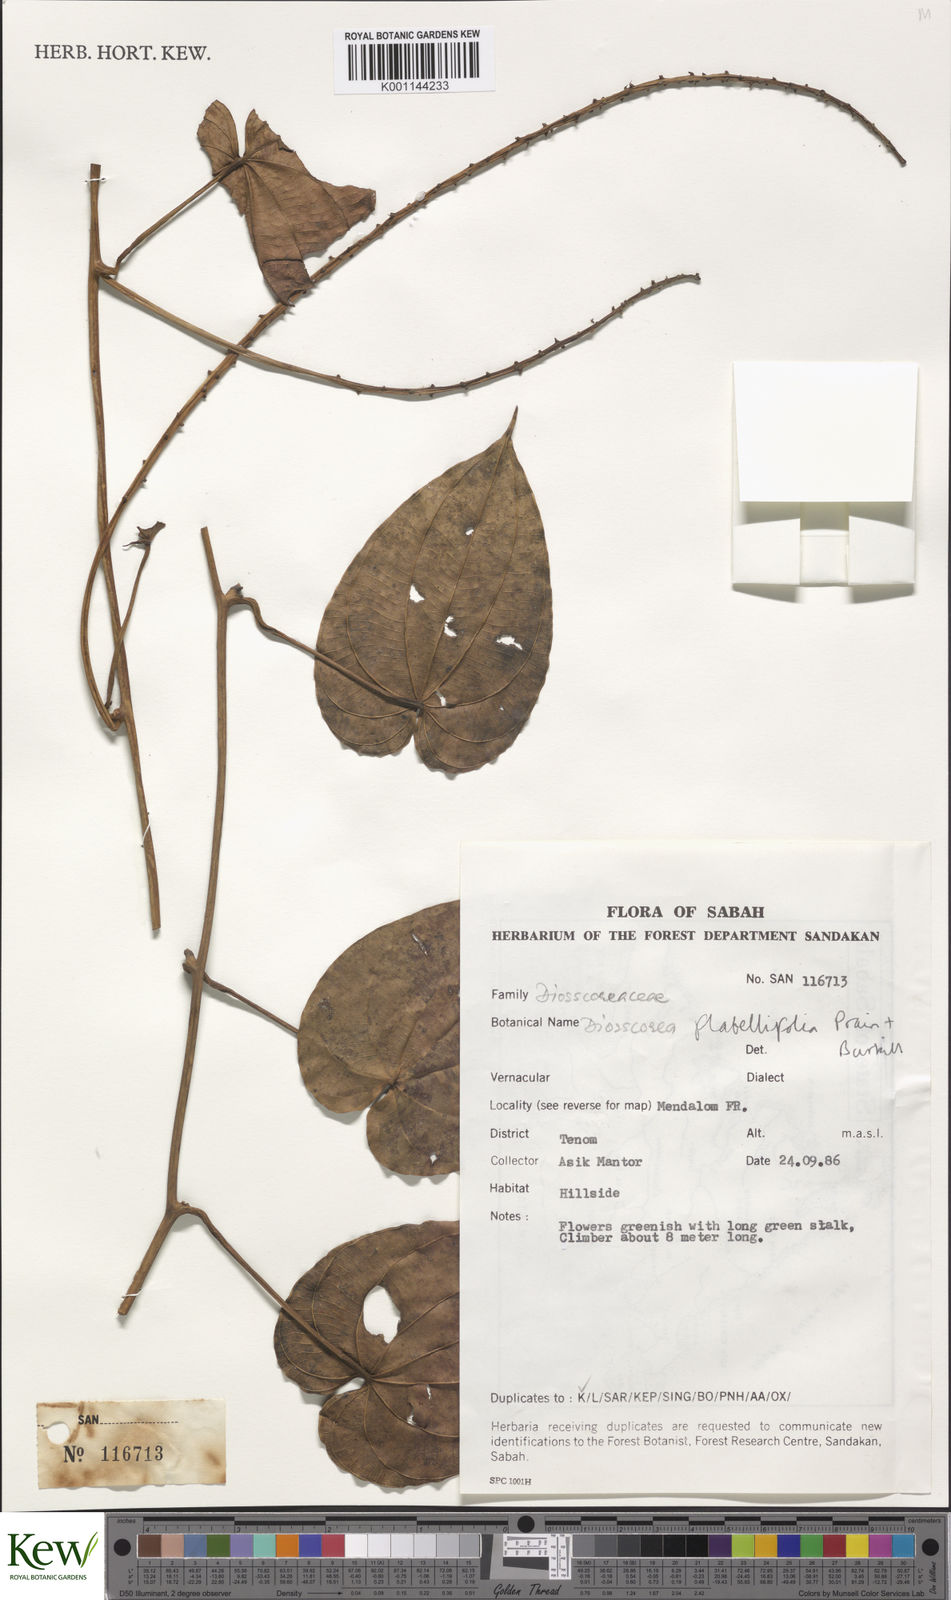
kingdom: Plantae
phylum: Tracheophyta
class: Liliopsida
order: Dioscoreales
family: Dioscoreaceae
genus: Dioscorea
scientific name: Dioscorea flabellifolia
